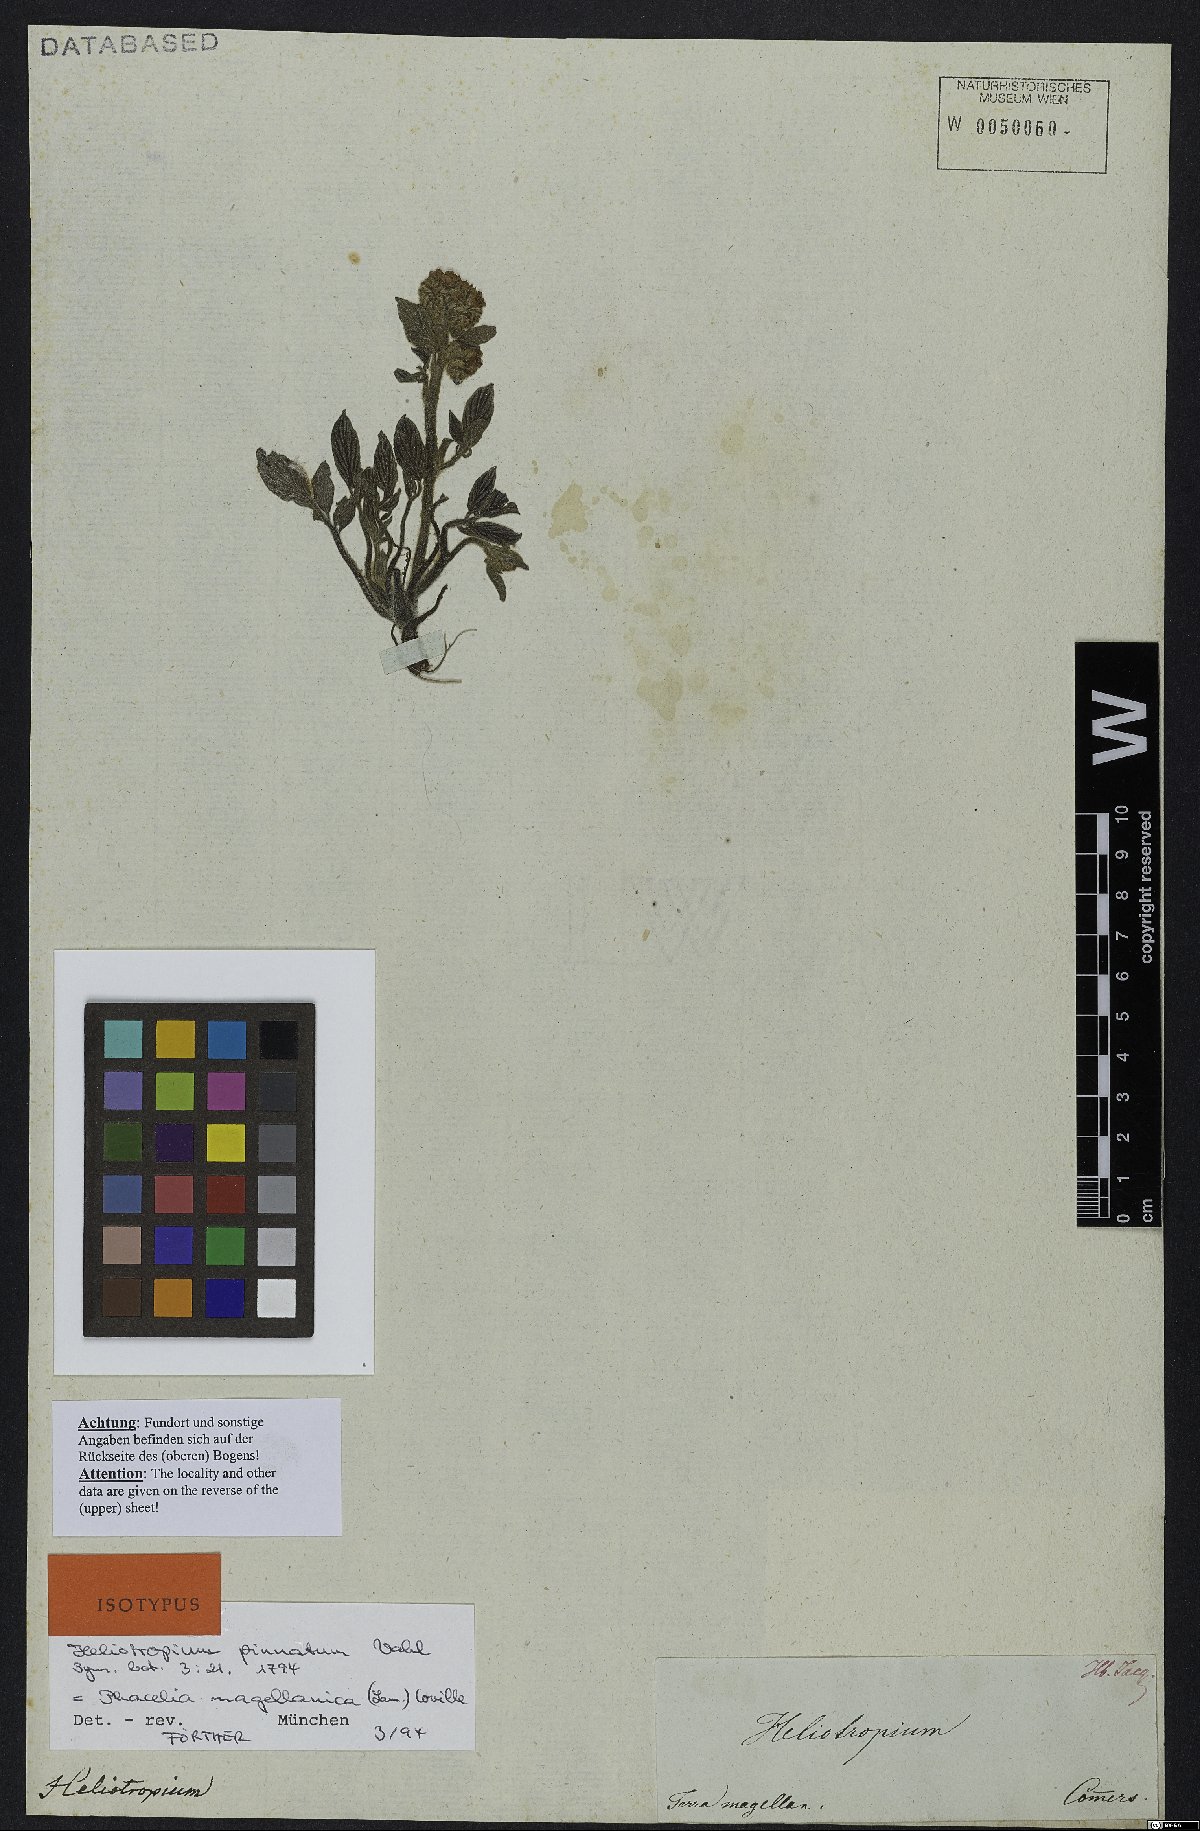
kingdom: Plantae
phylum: Tracheophyta
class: Magnoliopsida
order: Boraginales
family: Hydrophyllaceae
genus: Phacelia
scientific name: Phacelia secunda
